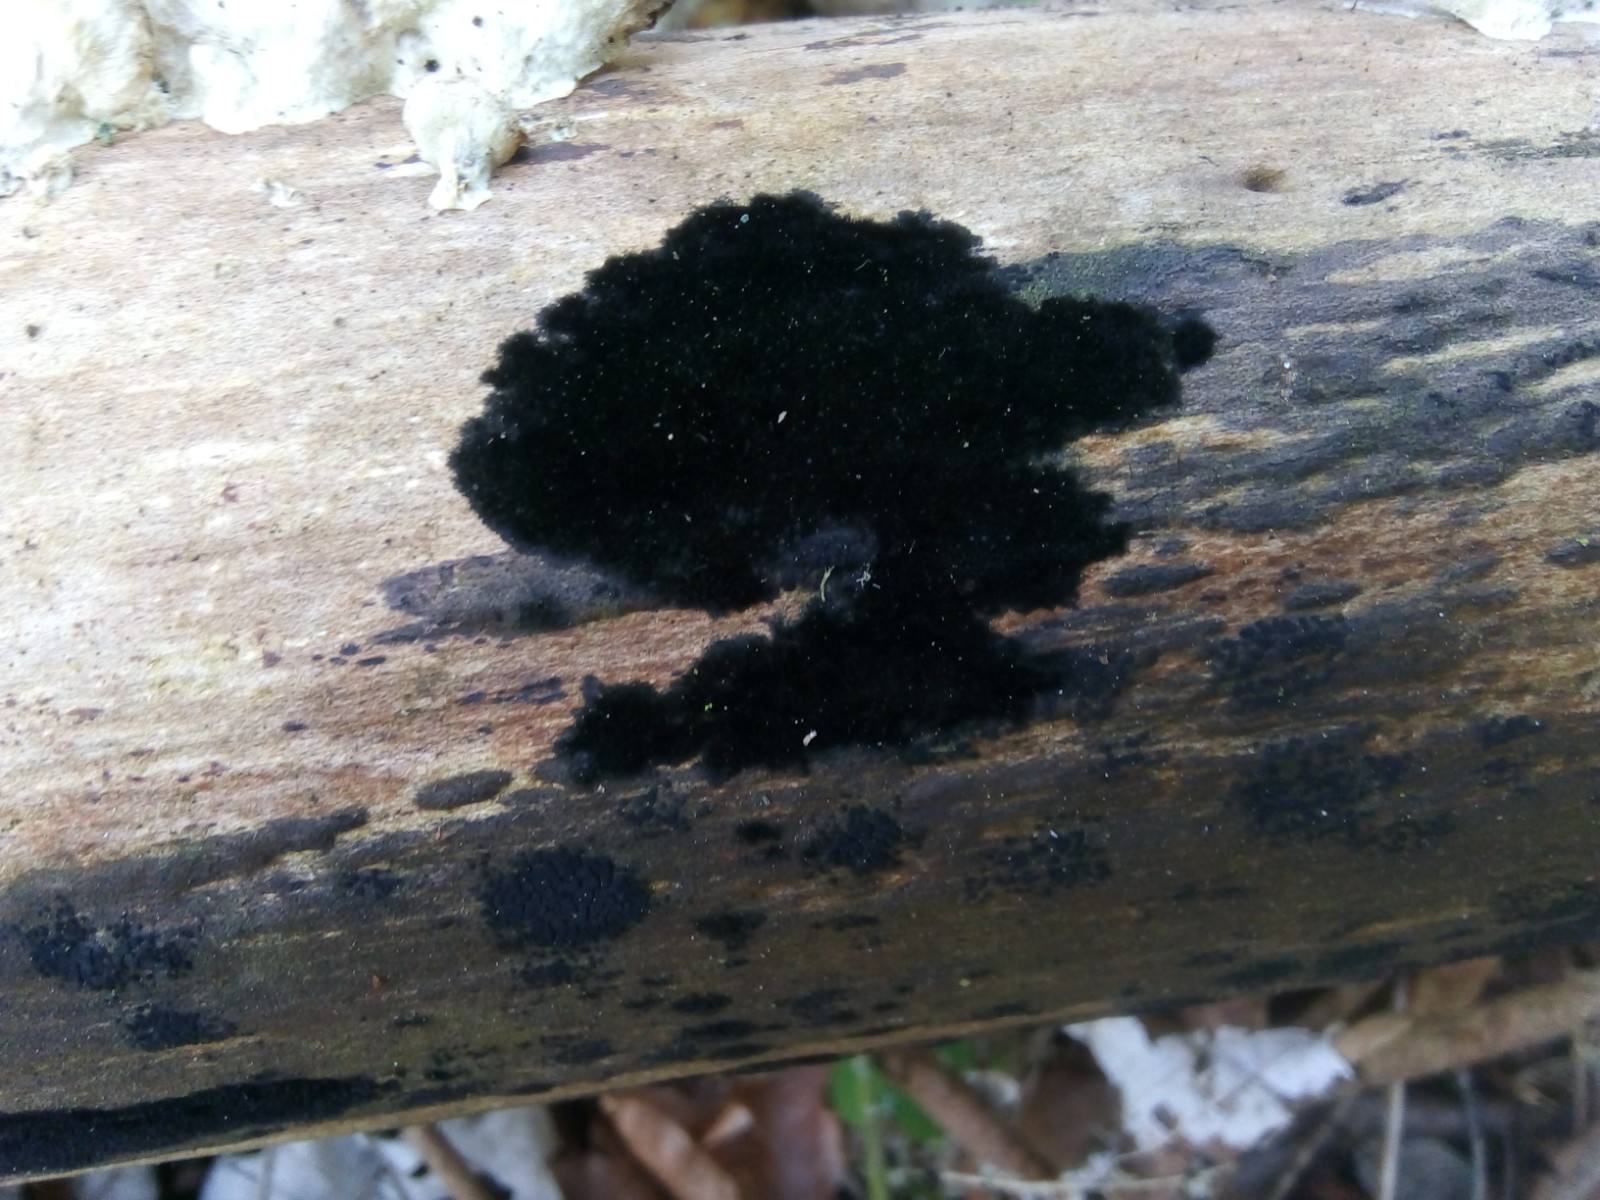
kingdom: Fungi
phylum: Ascomycota
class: Sordariomycetes
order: Coronophorales
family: Chaetosphaerellaceae
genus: Chaetosphaerella
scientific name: Chaetosphaerella phaeostroma
